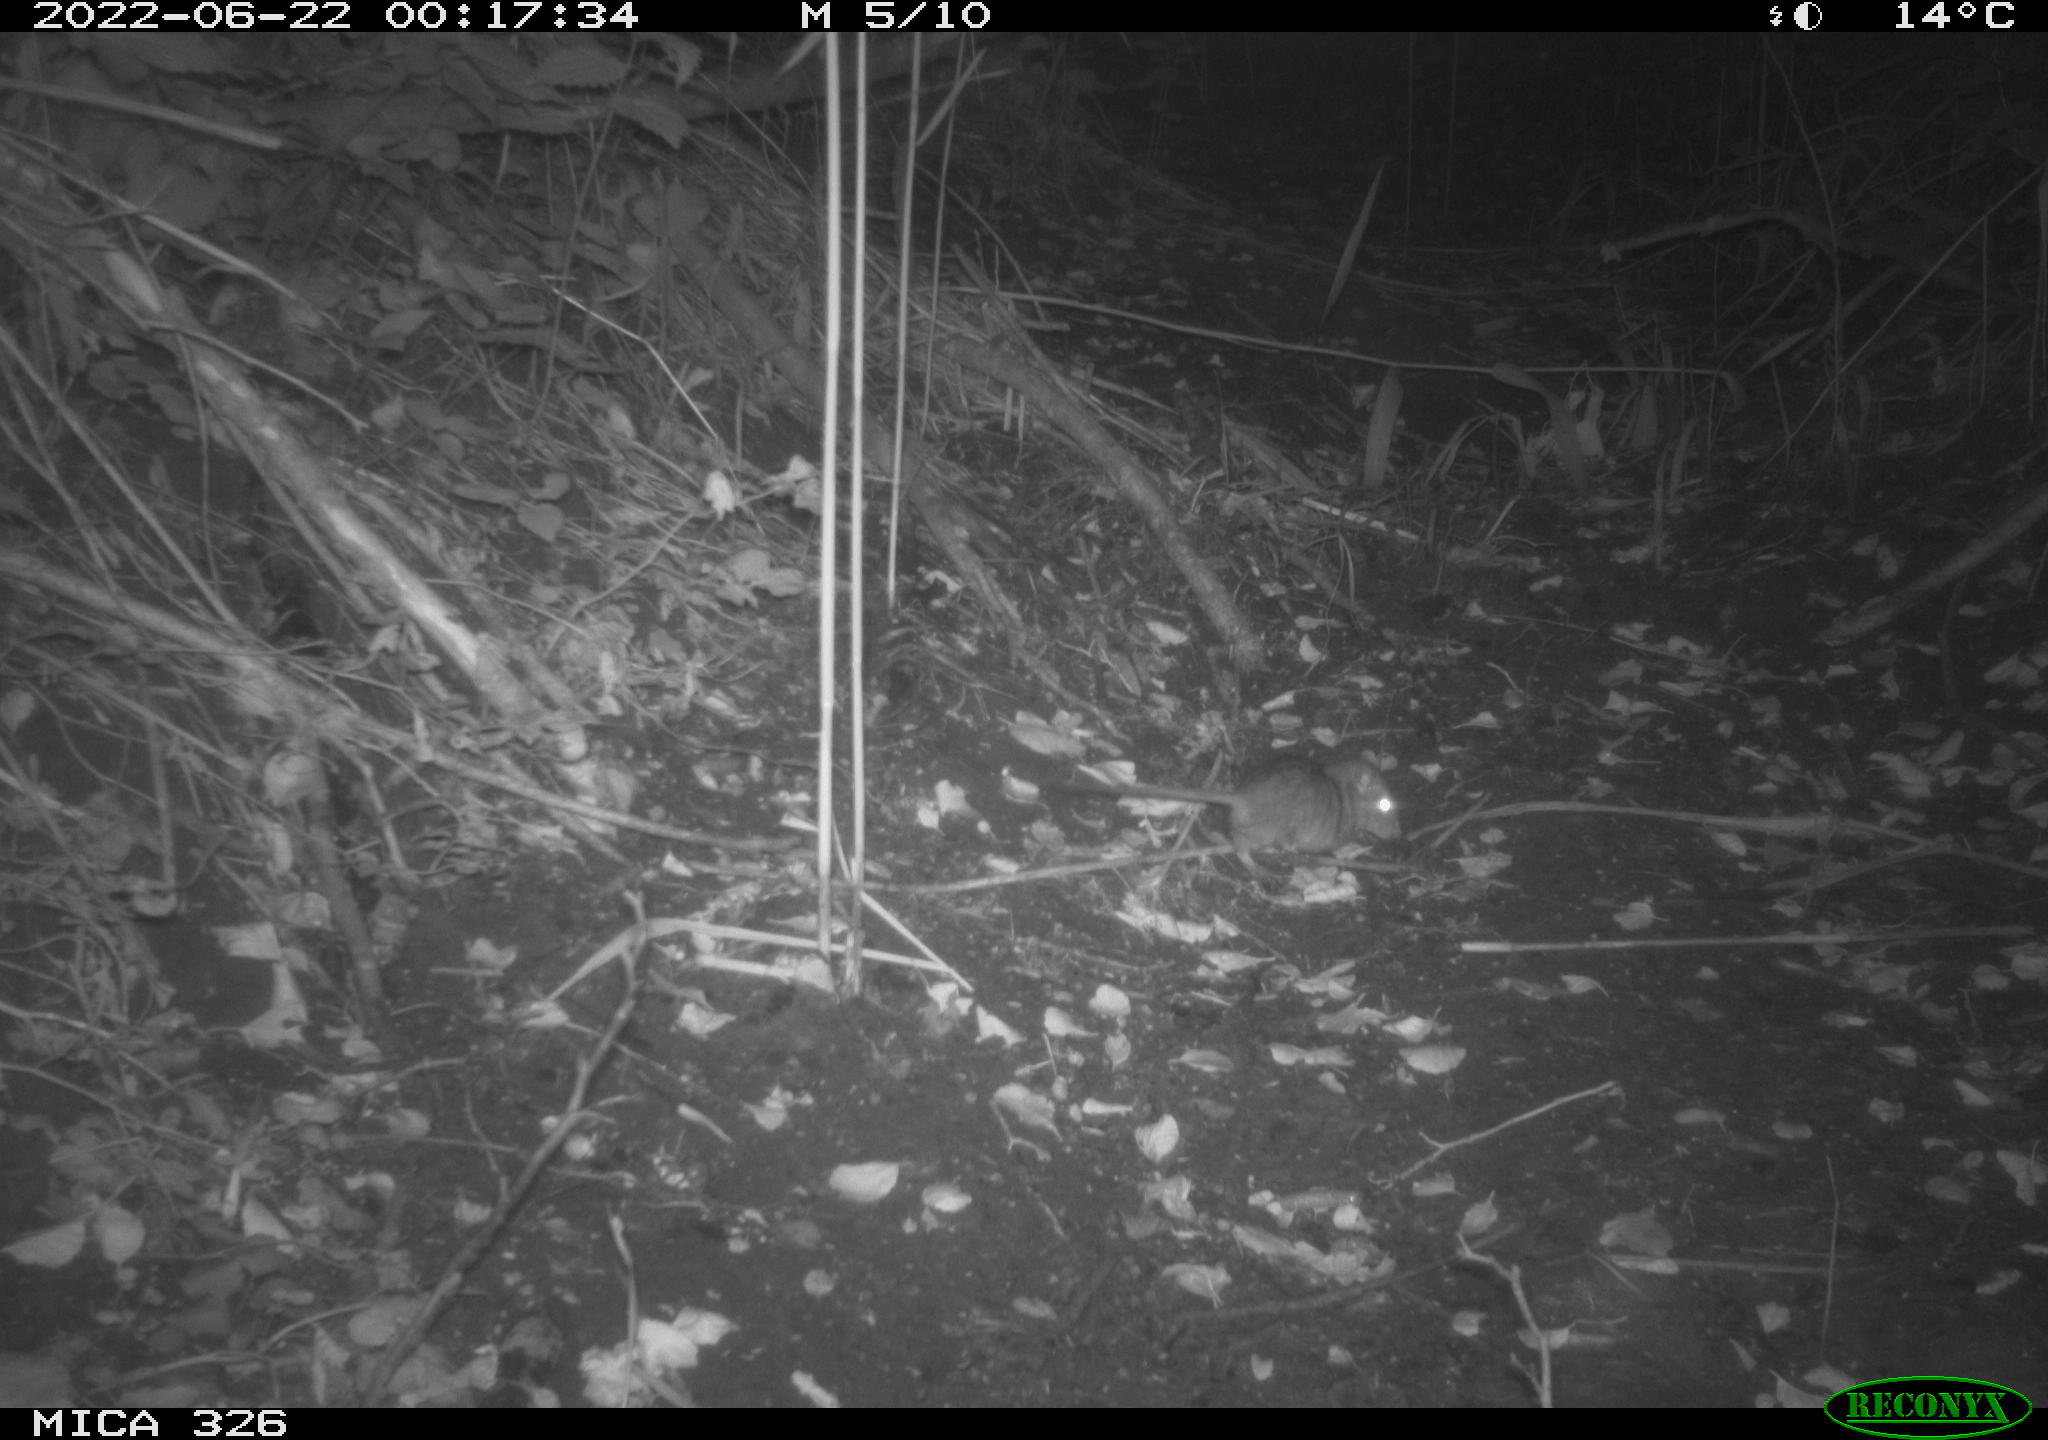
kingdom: Animalia
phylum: Chordata
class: Mammalia
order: Rodentia
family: Muridae
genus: Rattus
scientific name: Rattus norvegicus
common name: Brown rat
